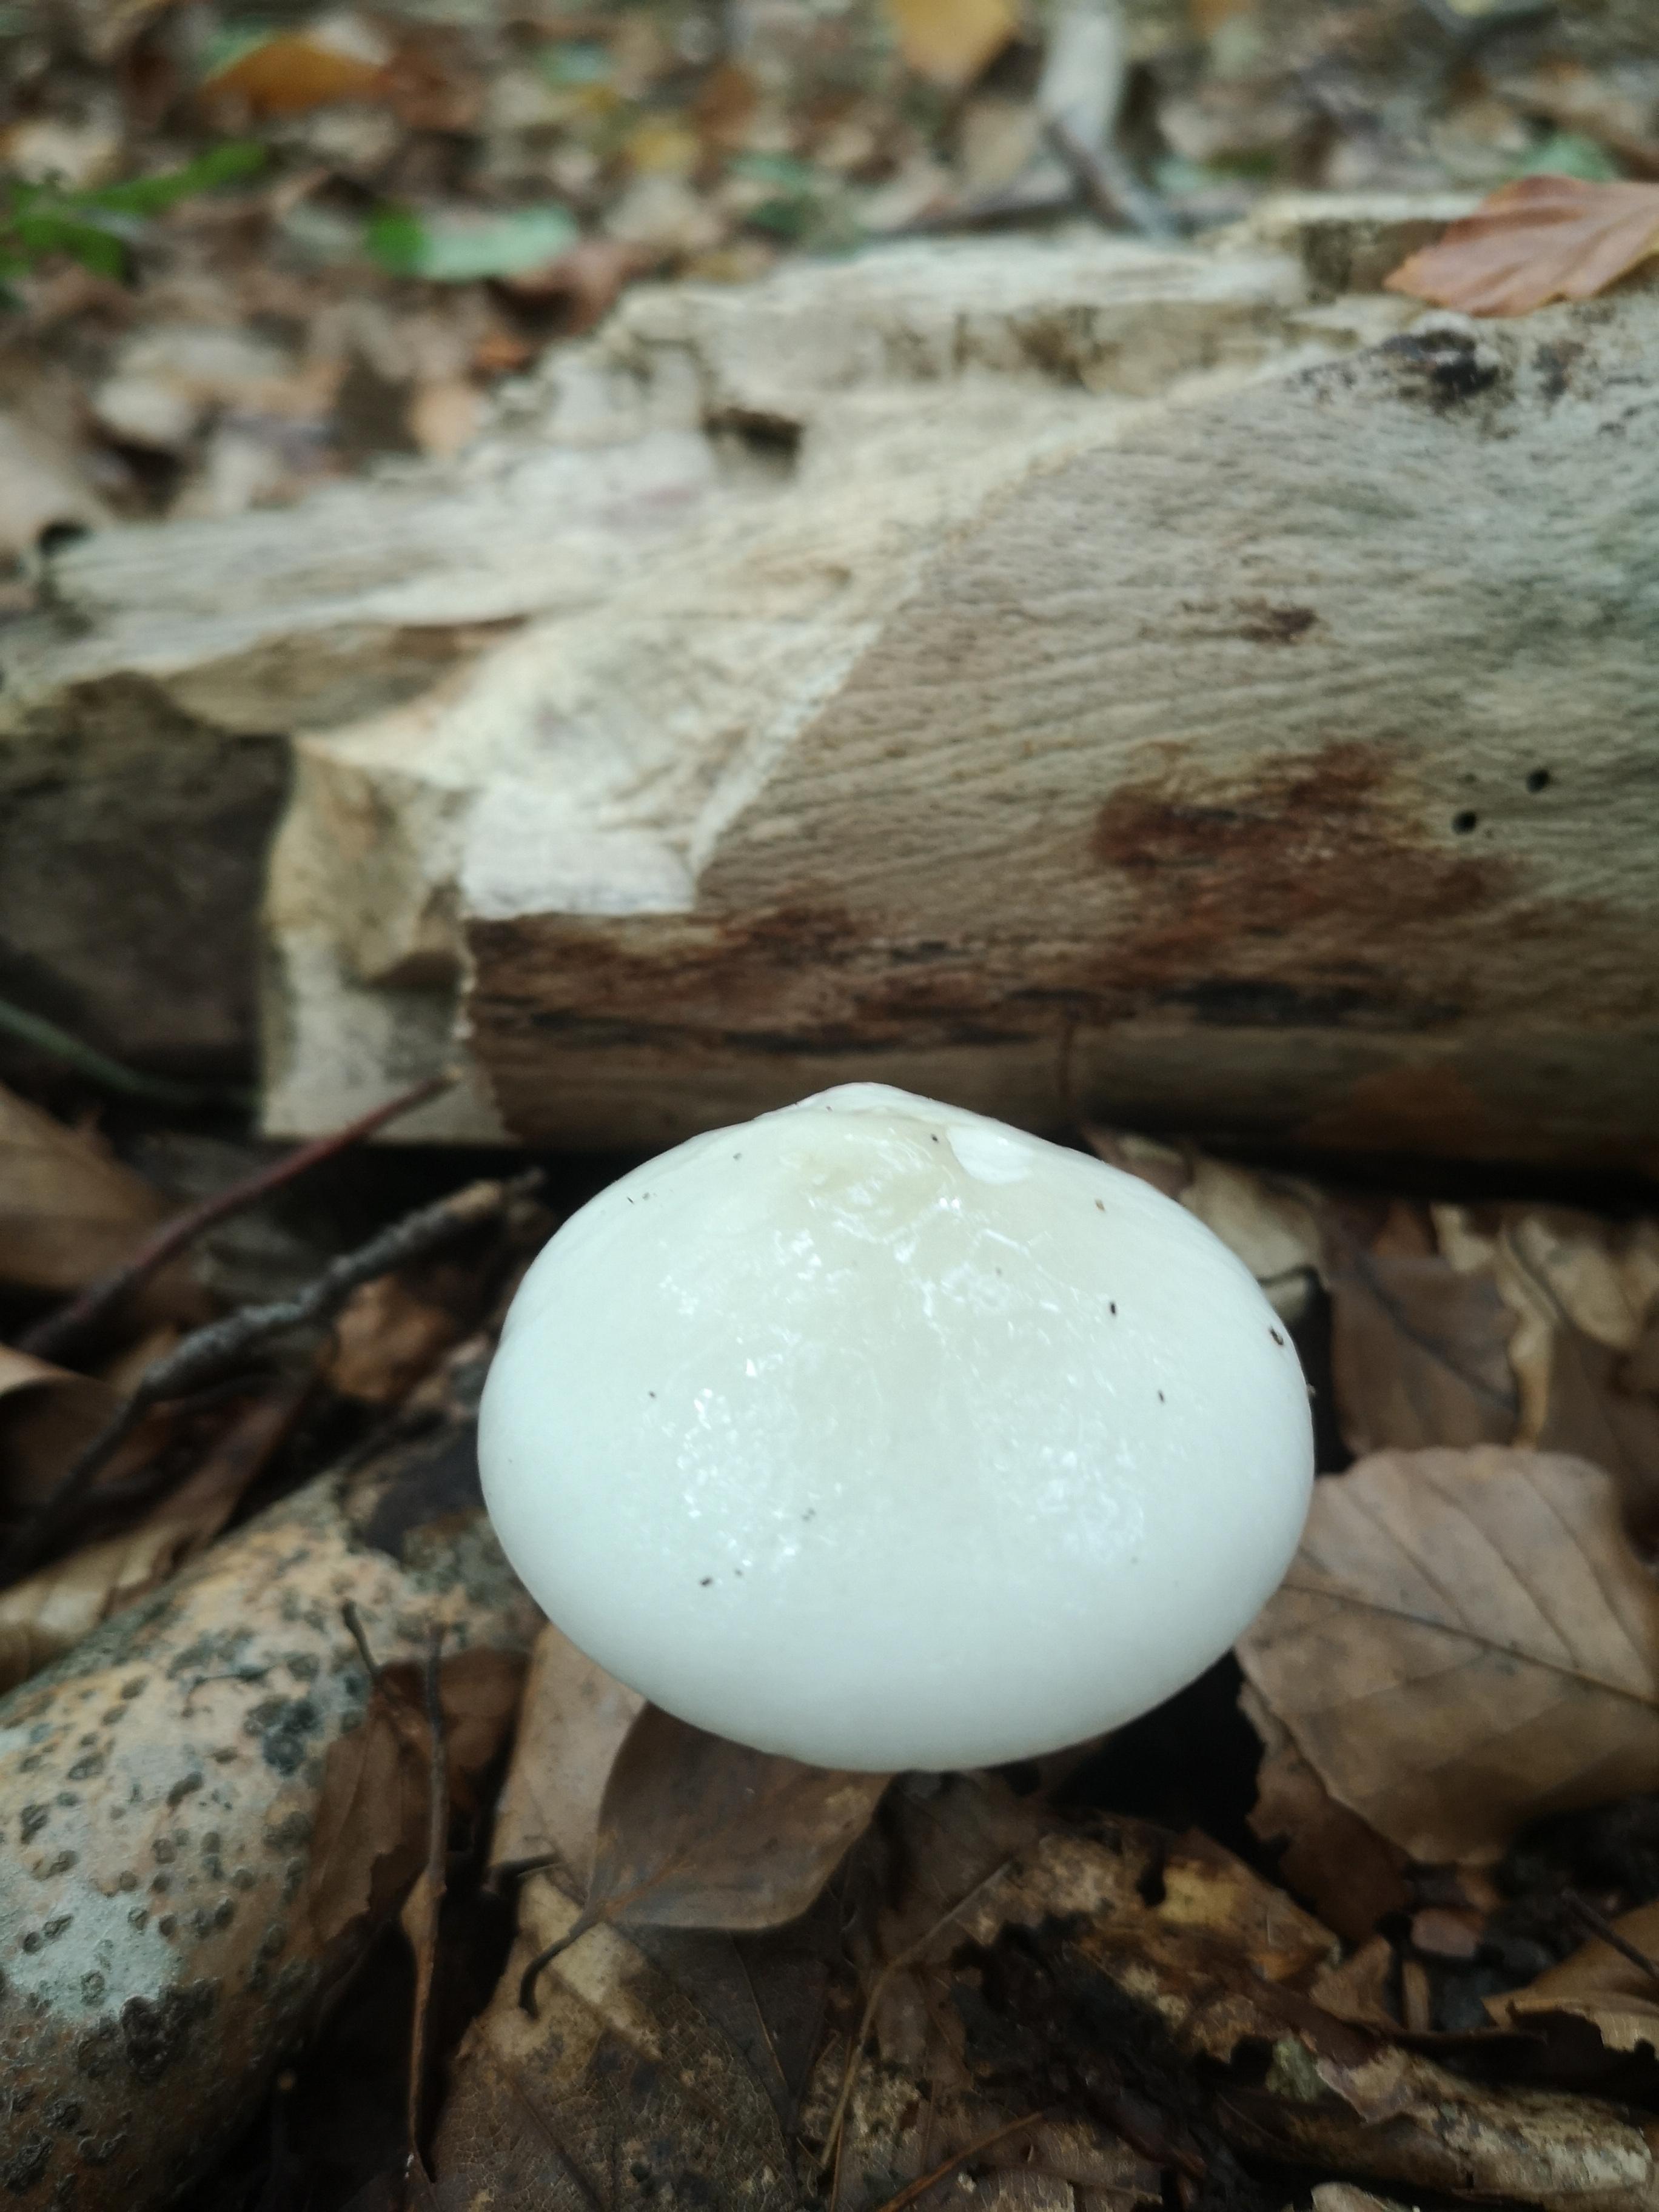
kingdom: Fungi
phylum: Basidiomycota
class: Agaricomycetes
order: Agaricales
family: Physalacriaceae
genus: Mucidula
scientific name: Mucidula mucida
